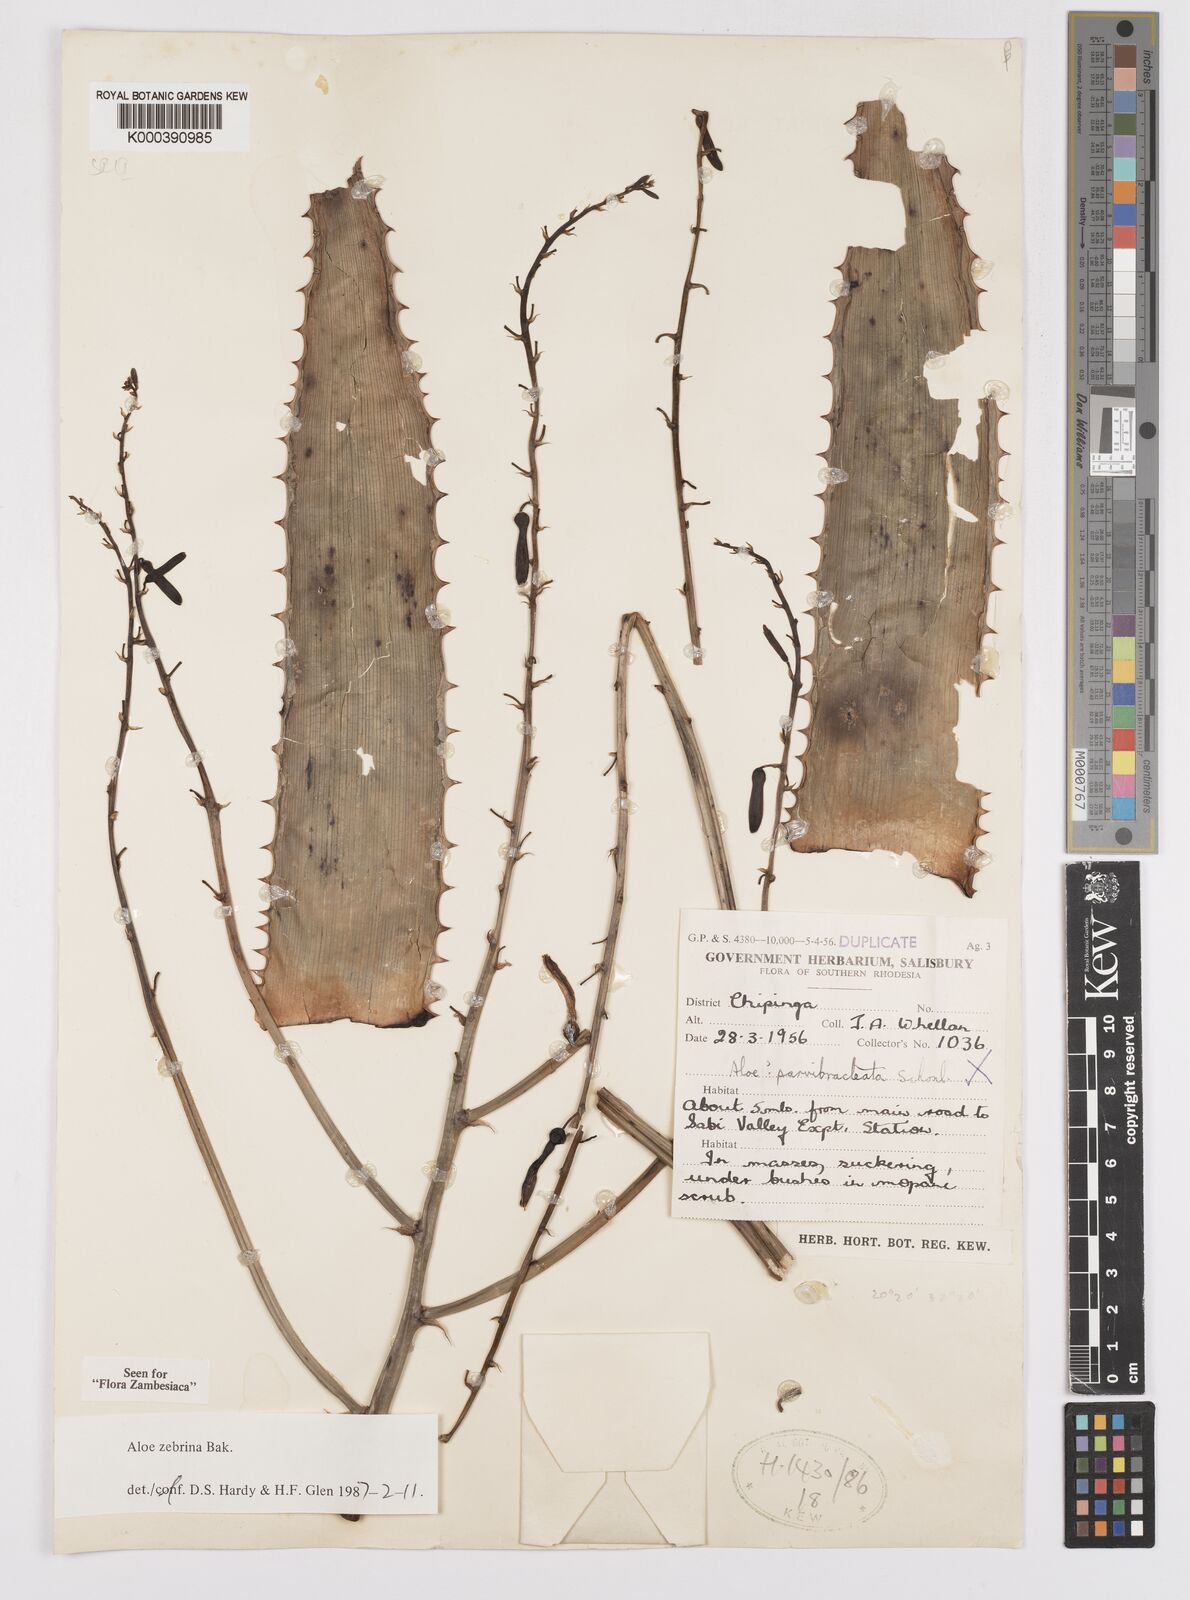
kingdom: Plantae
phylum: Tracheophyta
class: Liliopsida
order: Asparagales
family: Asphodelaceae
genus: Aloe
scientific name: Aloe zebrina
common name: Zebra-leaf aloe
